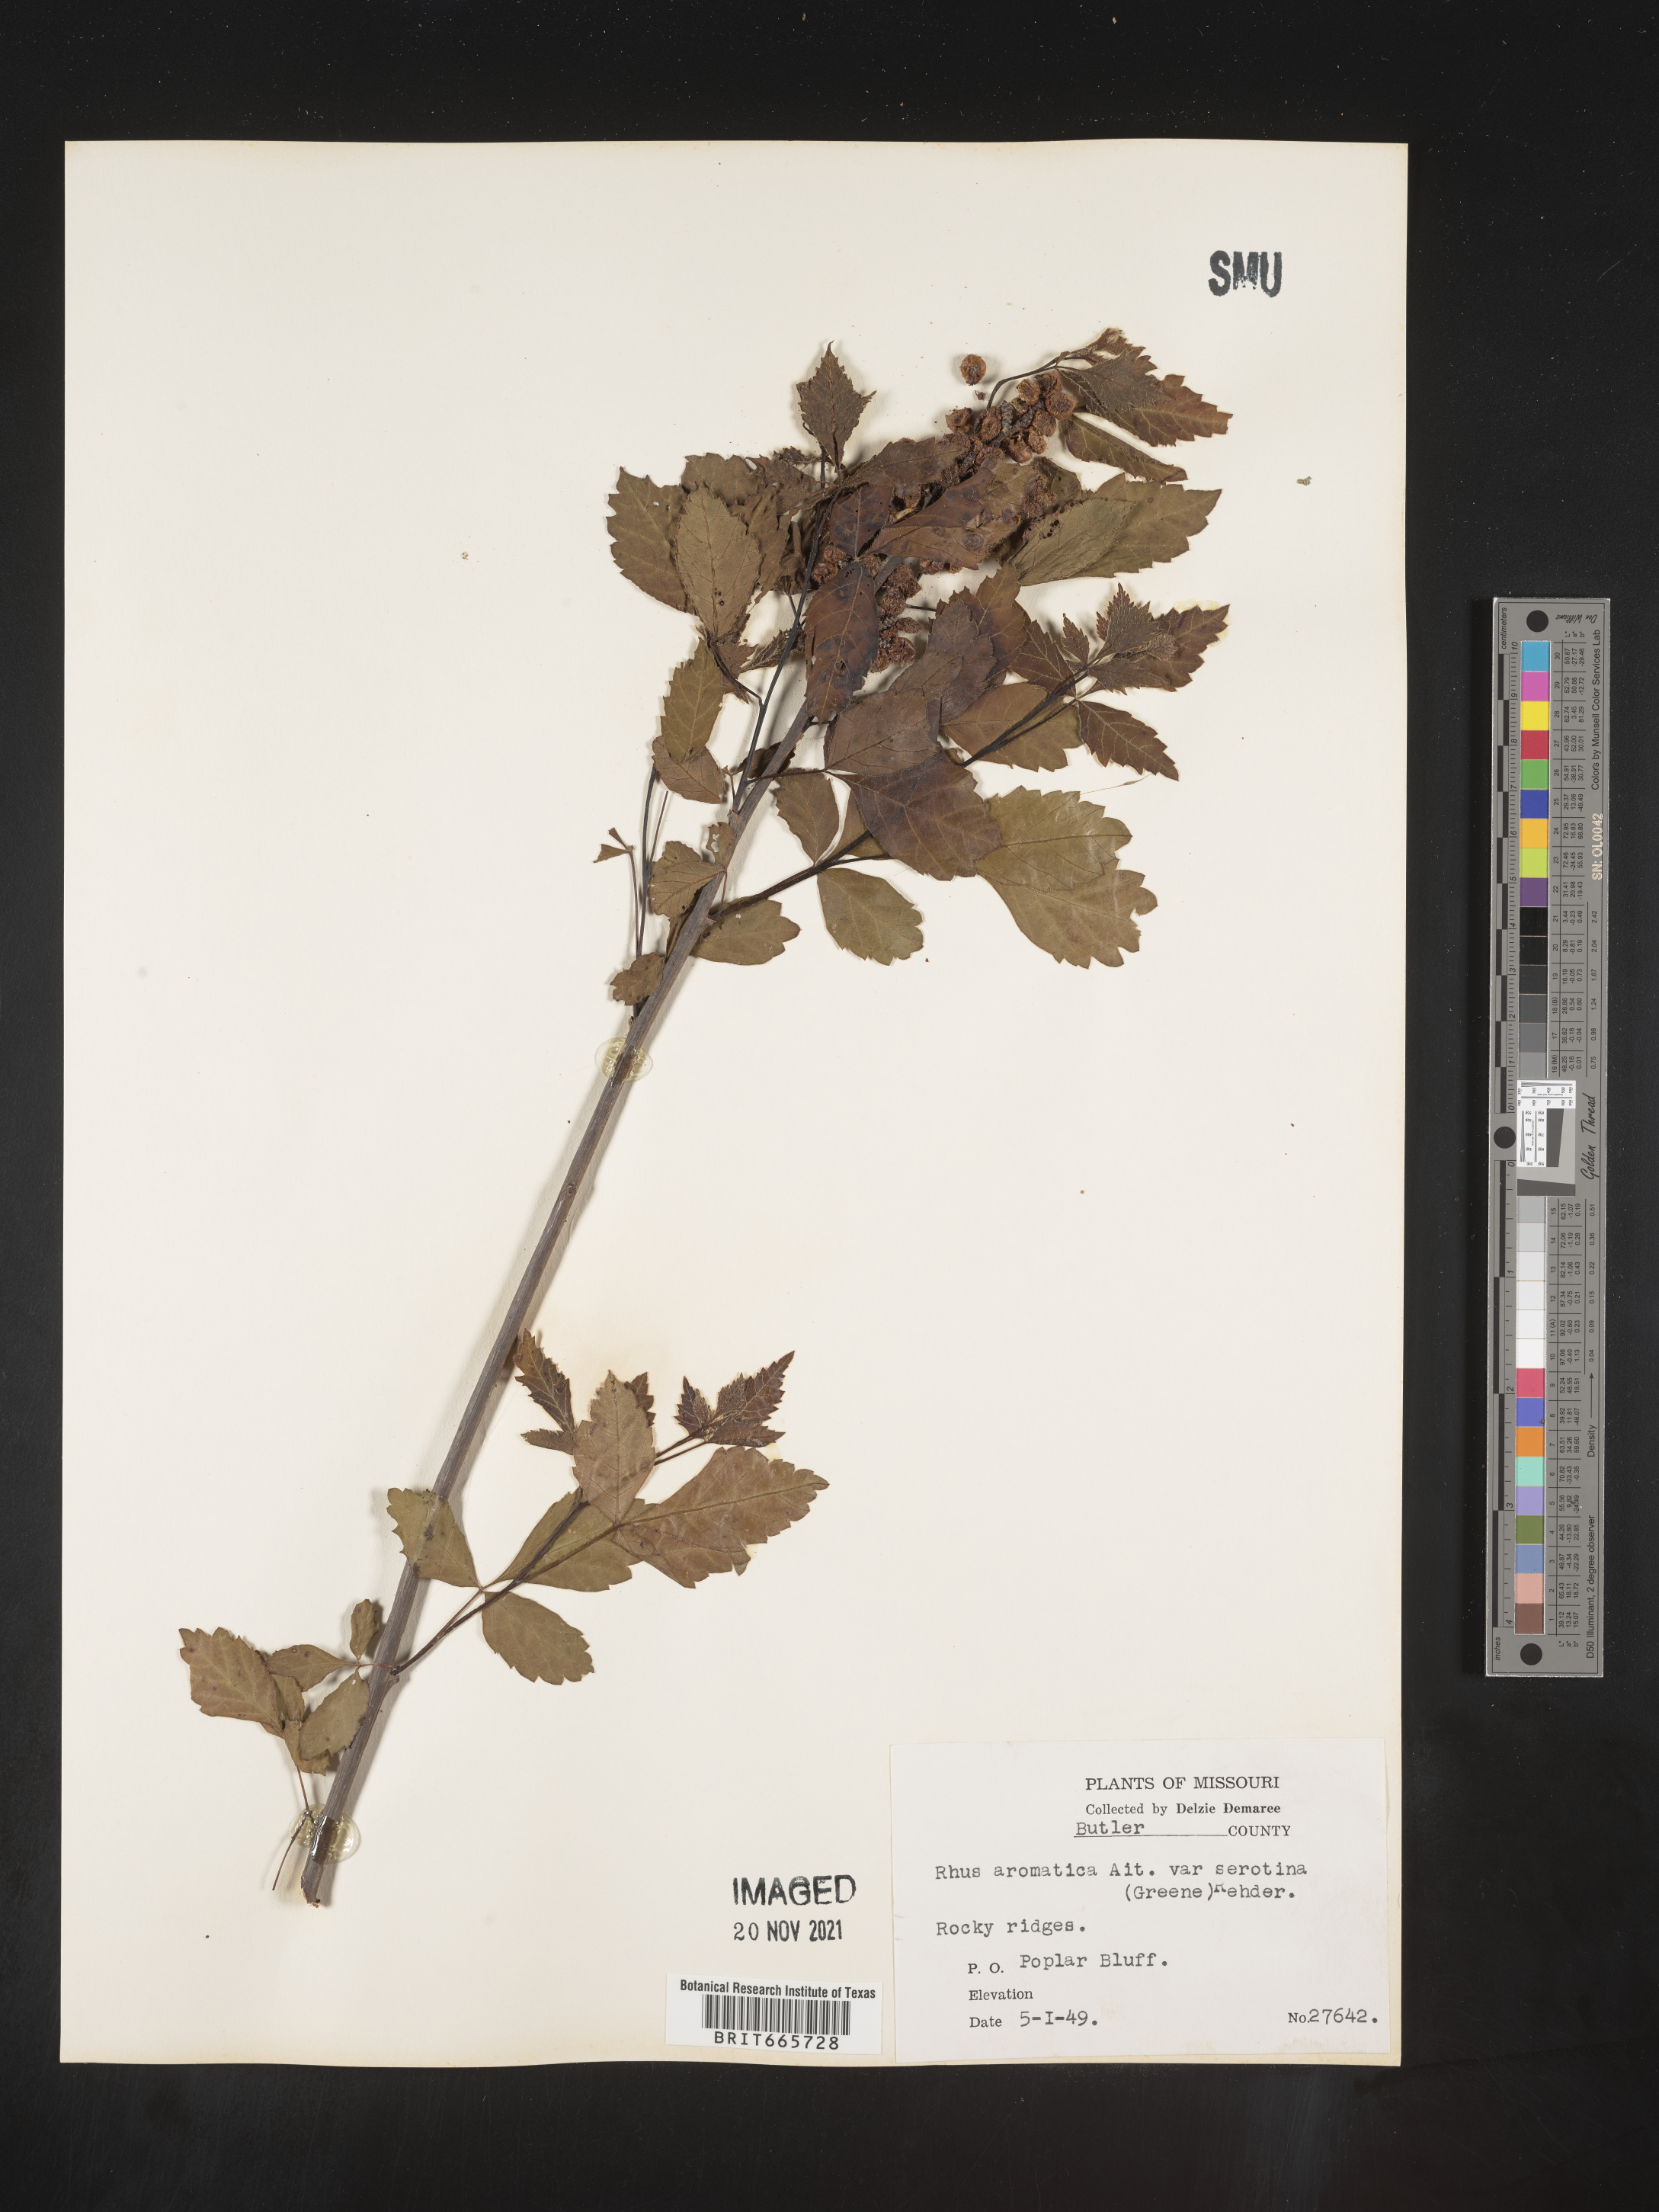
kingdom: Plantae
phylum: Tracheophyta
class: Magnoliopsida
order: Sapindales
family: Anacardiaceae
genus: Rhus
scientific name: Rhus aromatica
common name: Aromatic sumac
